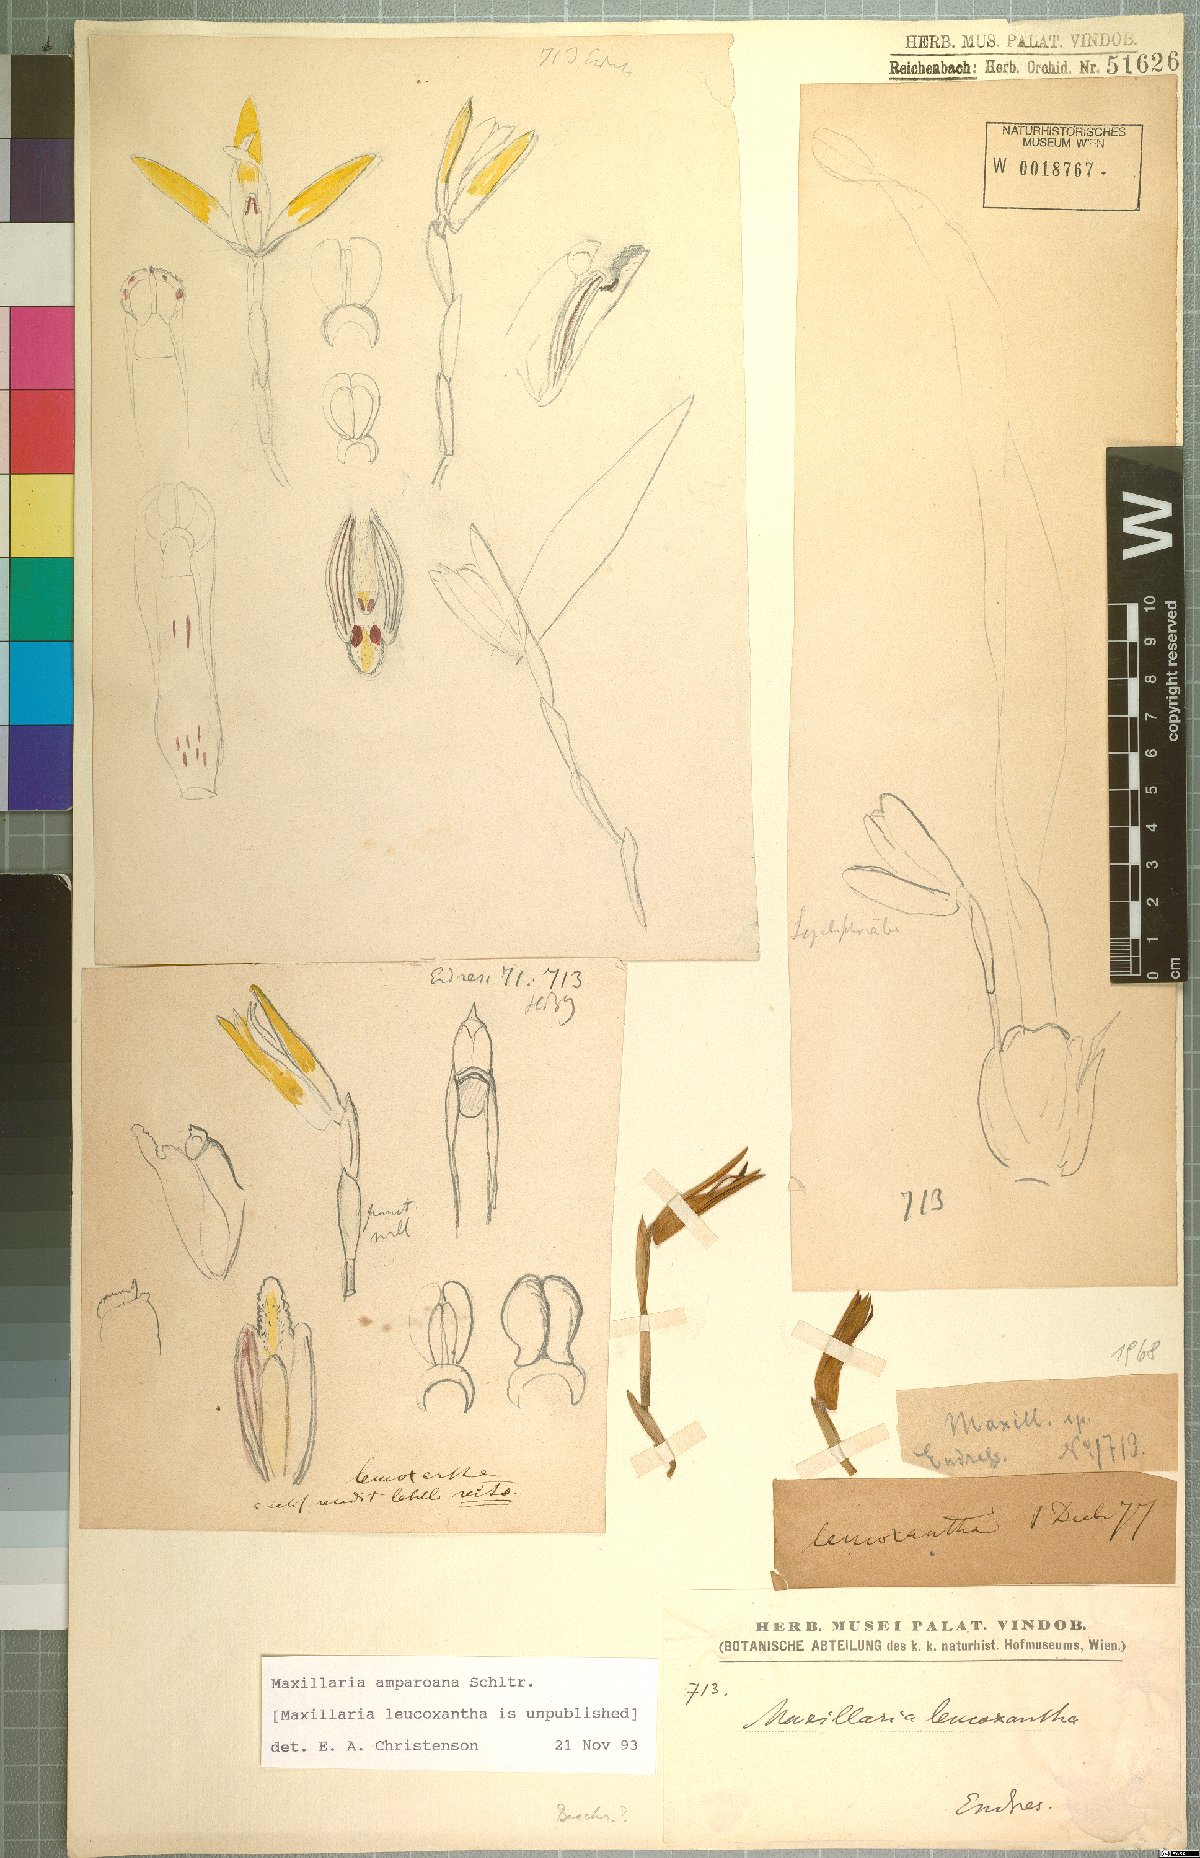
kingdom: Plantae
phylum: Tracheophyta
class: Liliopsida
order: Asparagales
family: Orchidaceae
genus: Maxillaria
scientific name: Maxillaria ringens
